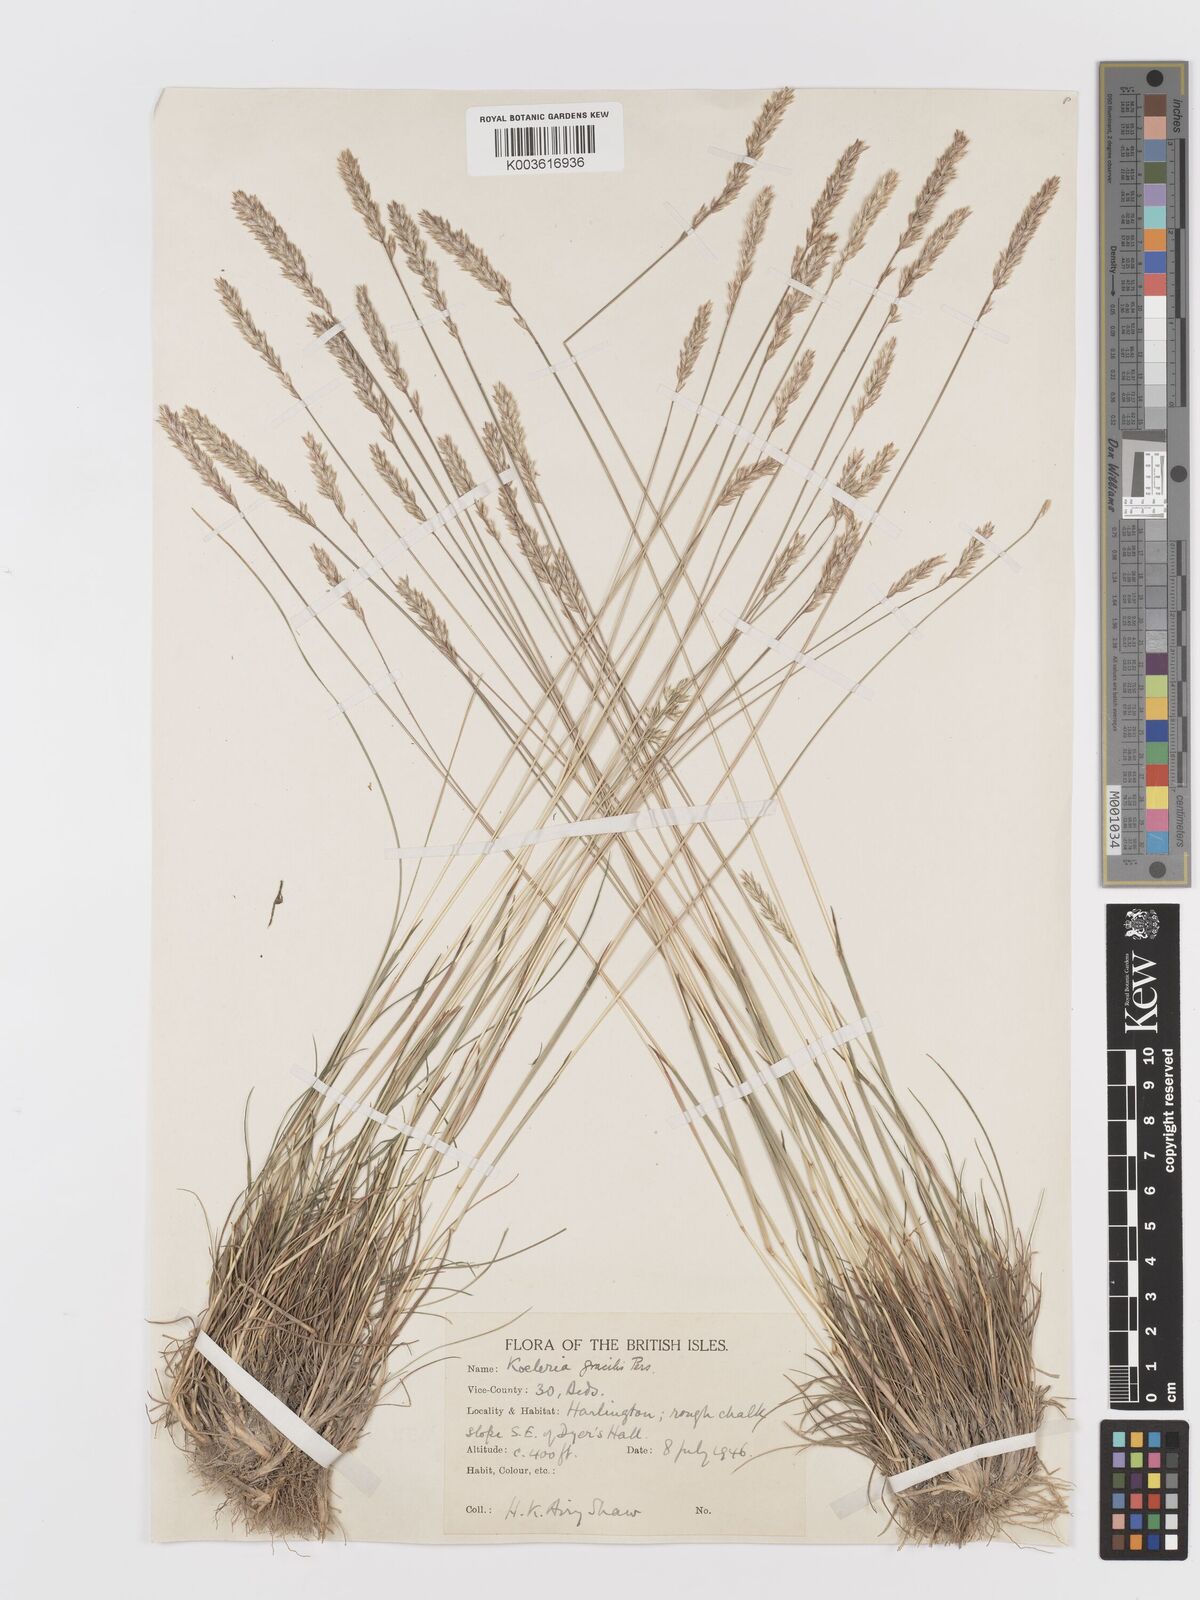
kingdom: Plantae
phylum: Tracheophyta
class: Liliopsida
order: Poales
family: Poaceae
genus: Koeleria
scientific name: Koeleria macrantha
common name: Crested hair-grass
